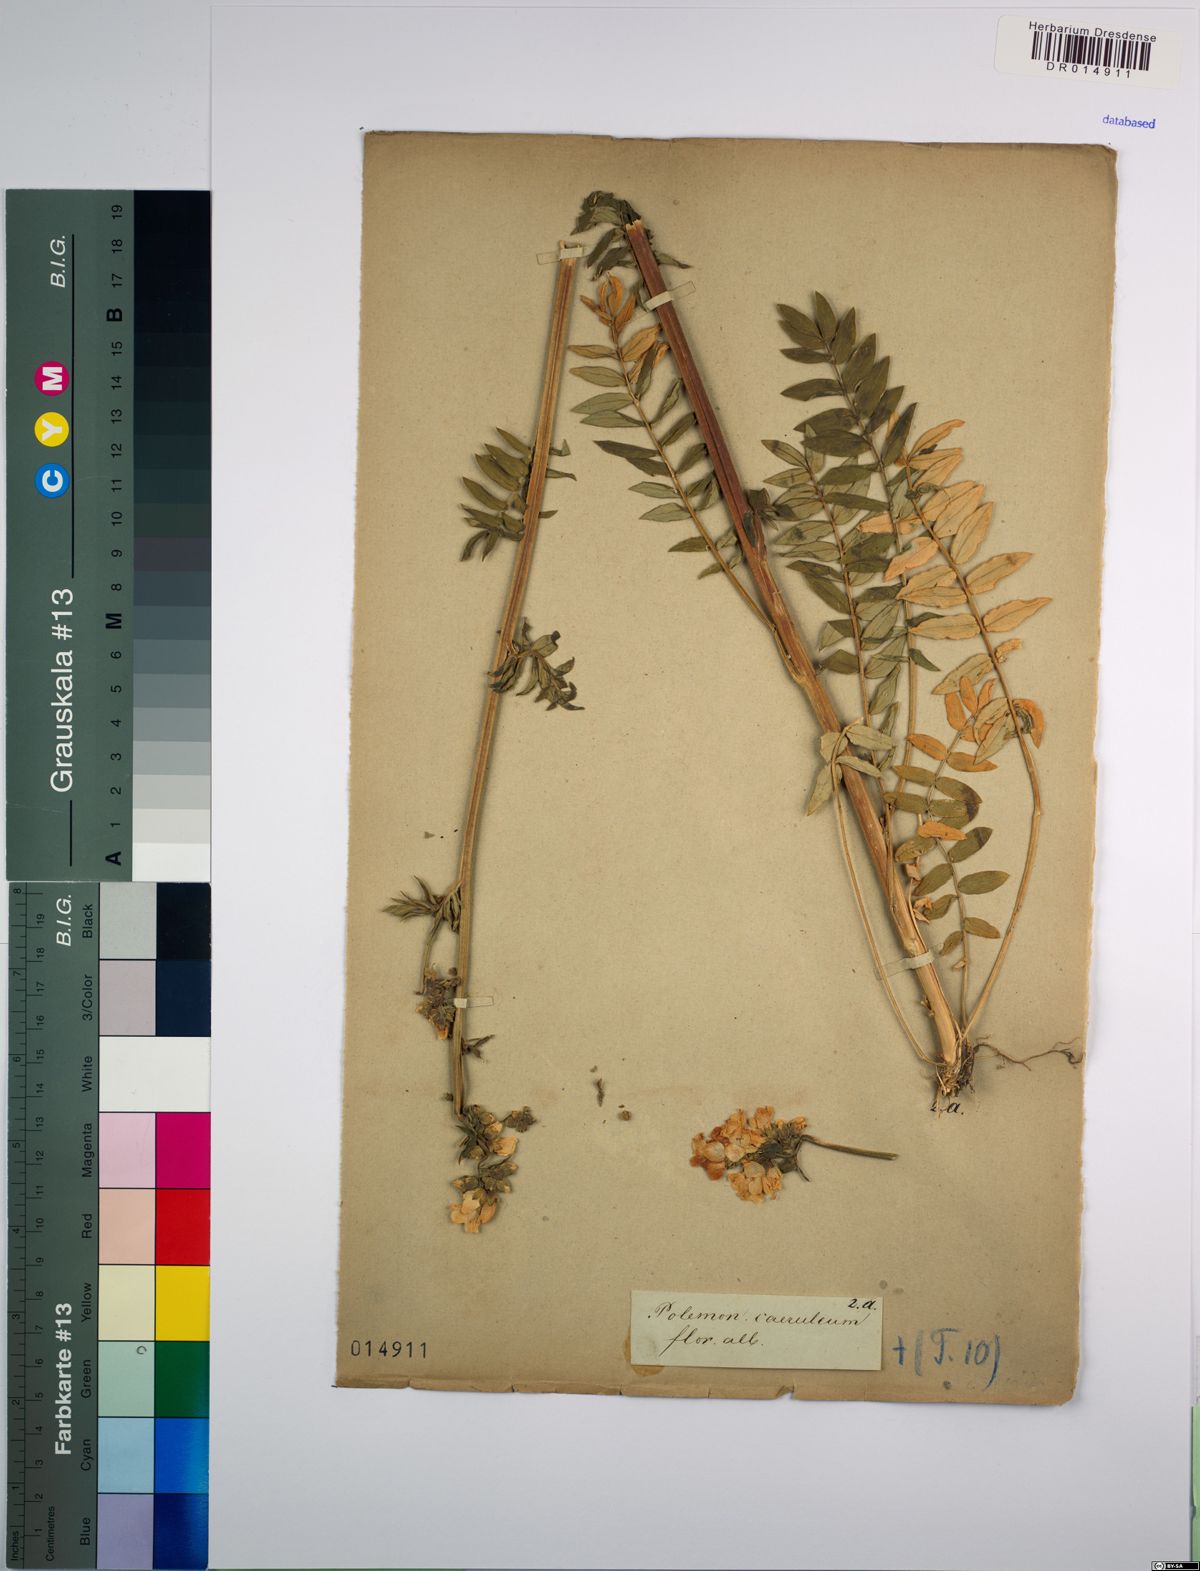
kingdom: Plantae
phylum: Tracheophyta
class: Magnoliopsida
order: Ericales
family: Polemoniaceae
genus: Polemonium
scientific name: Polemonium caeruleum
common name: Jacob's-ladder
